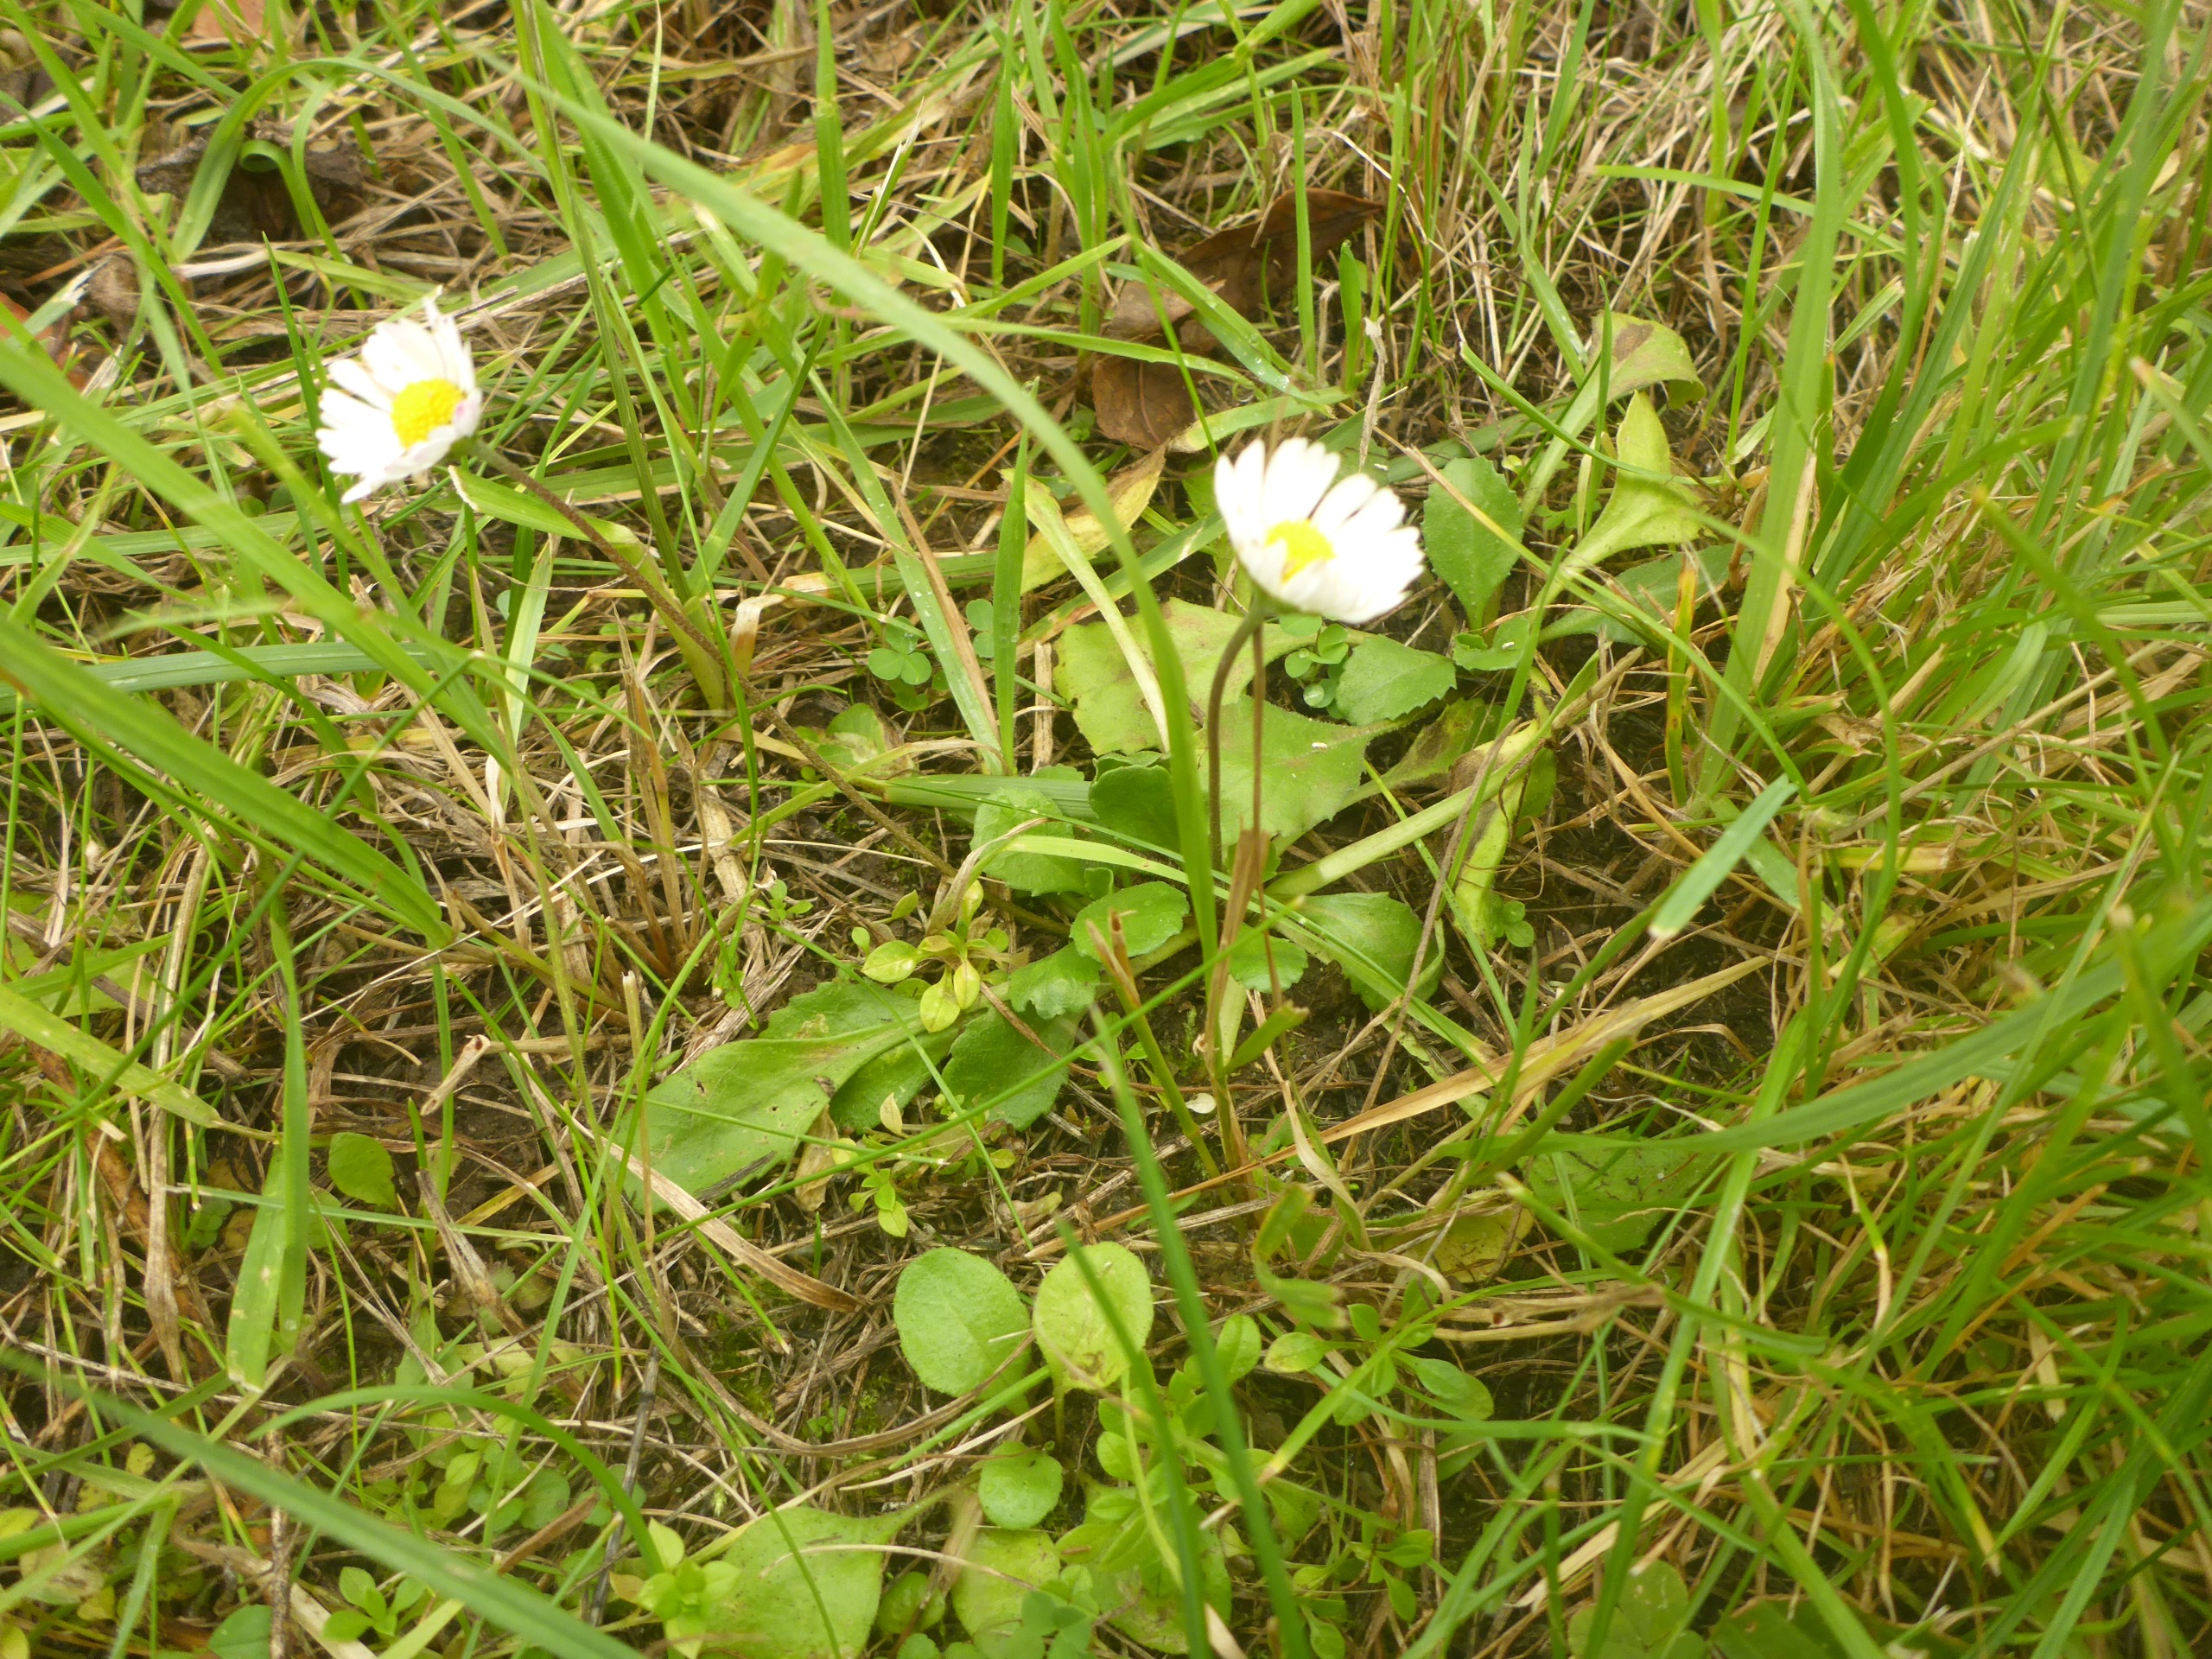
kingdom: Plantae
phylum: Tracheophyta
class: Magnoliopsida
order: Asterales
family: Asteraceae
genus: Bellis
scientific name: Bellis perennis
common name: Tusindfryd
